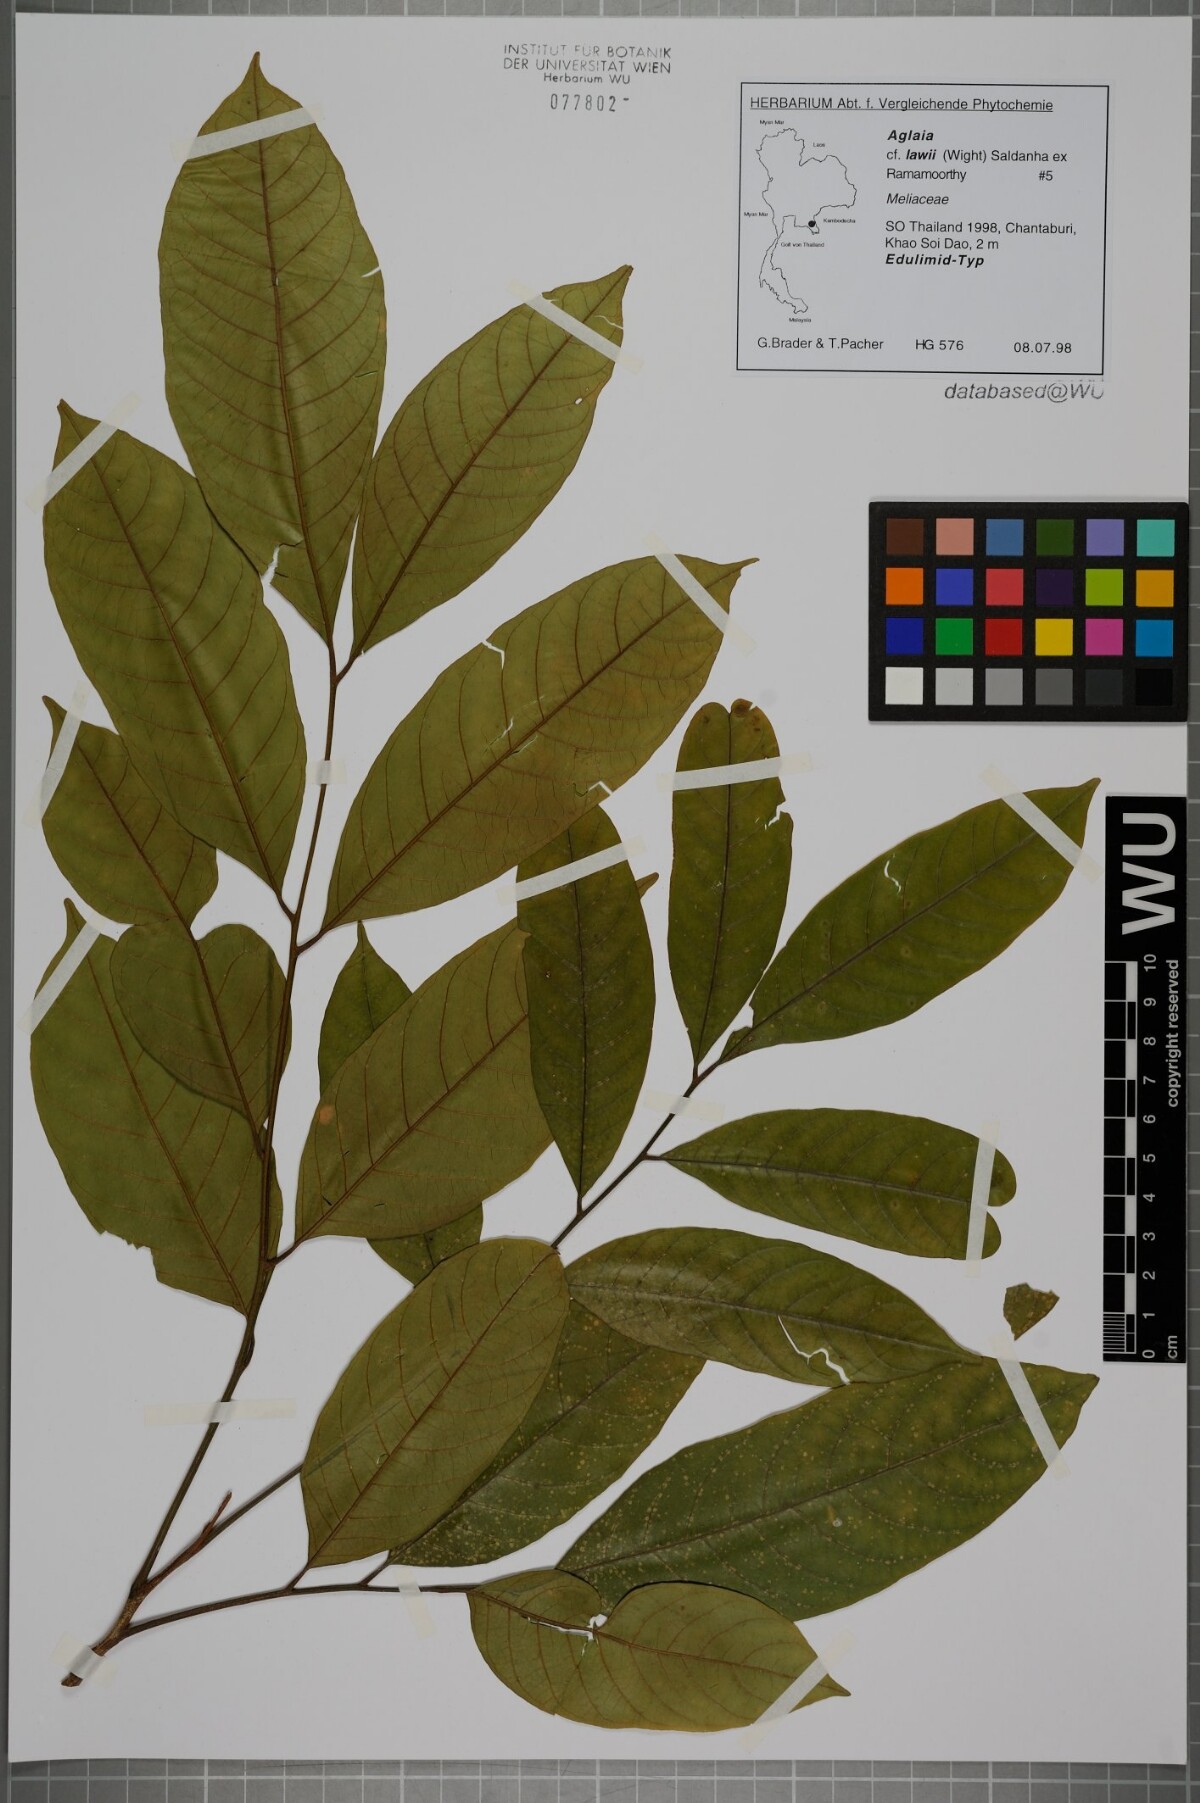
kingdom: Plantae
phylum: Tracheophyta
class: Magnoliopsida
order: Sapindales
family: Meliaceae
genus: Aglaia
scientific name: Aglaia lawii
